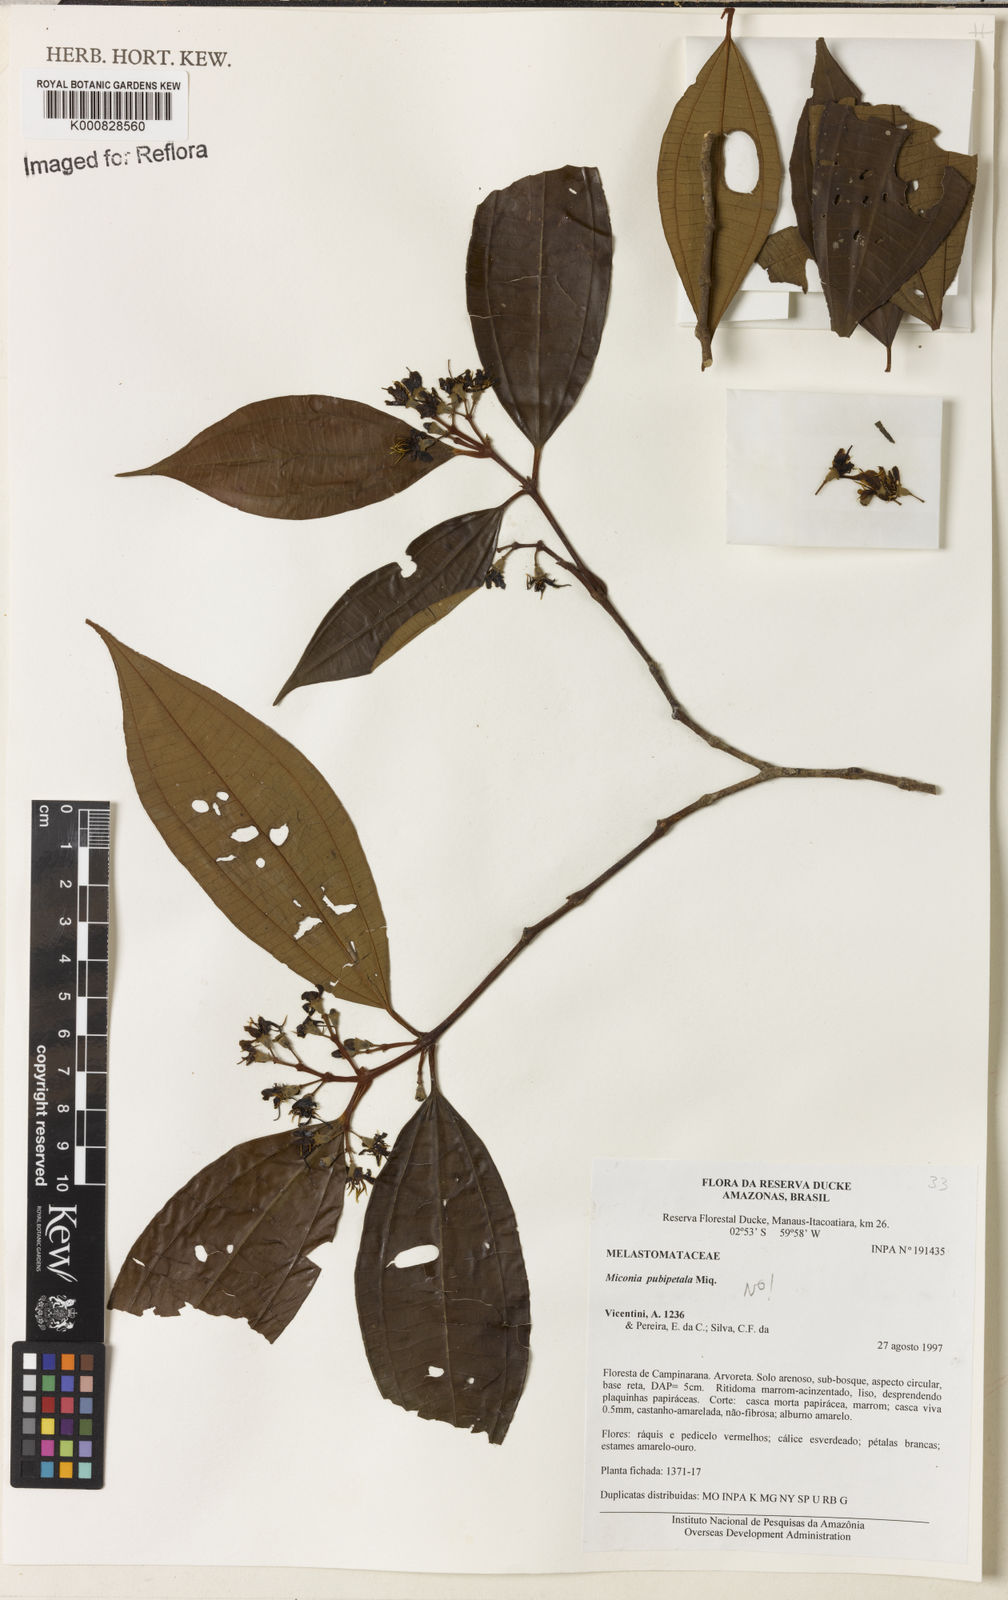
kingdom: Plantae
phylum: Tracheophyta
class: Magnoliopsida
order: Myrtales
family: Melastomataceae
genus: Miconia
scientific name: Miconia pubipetala
